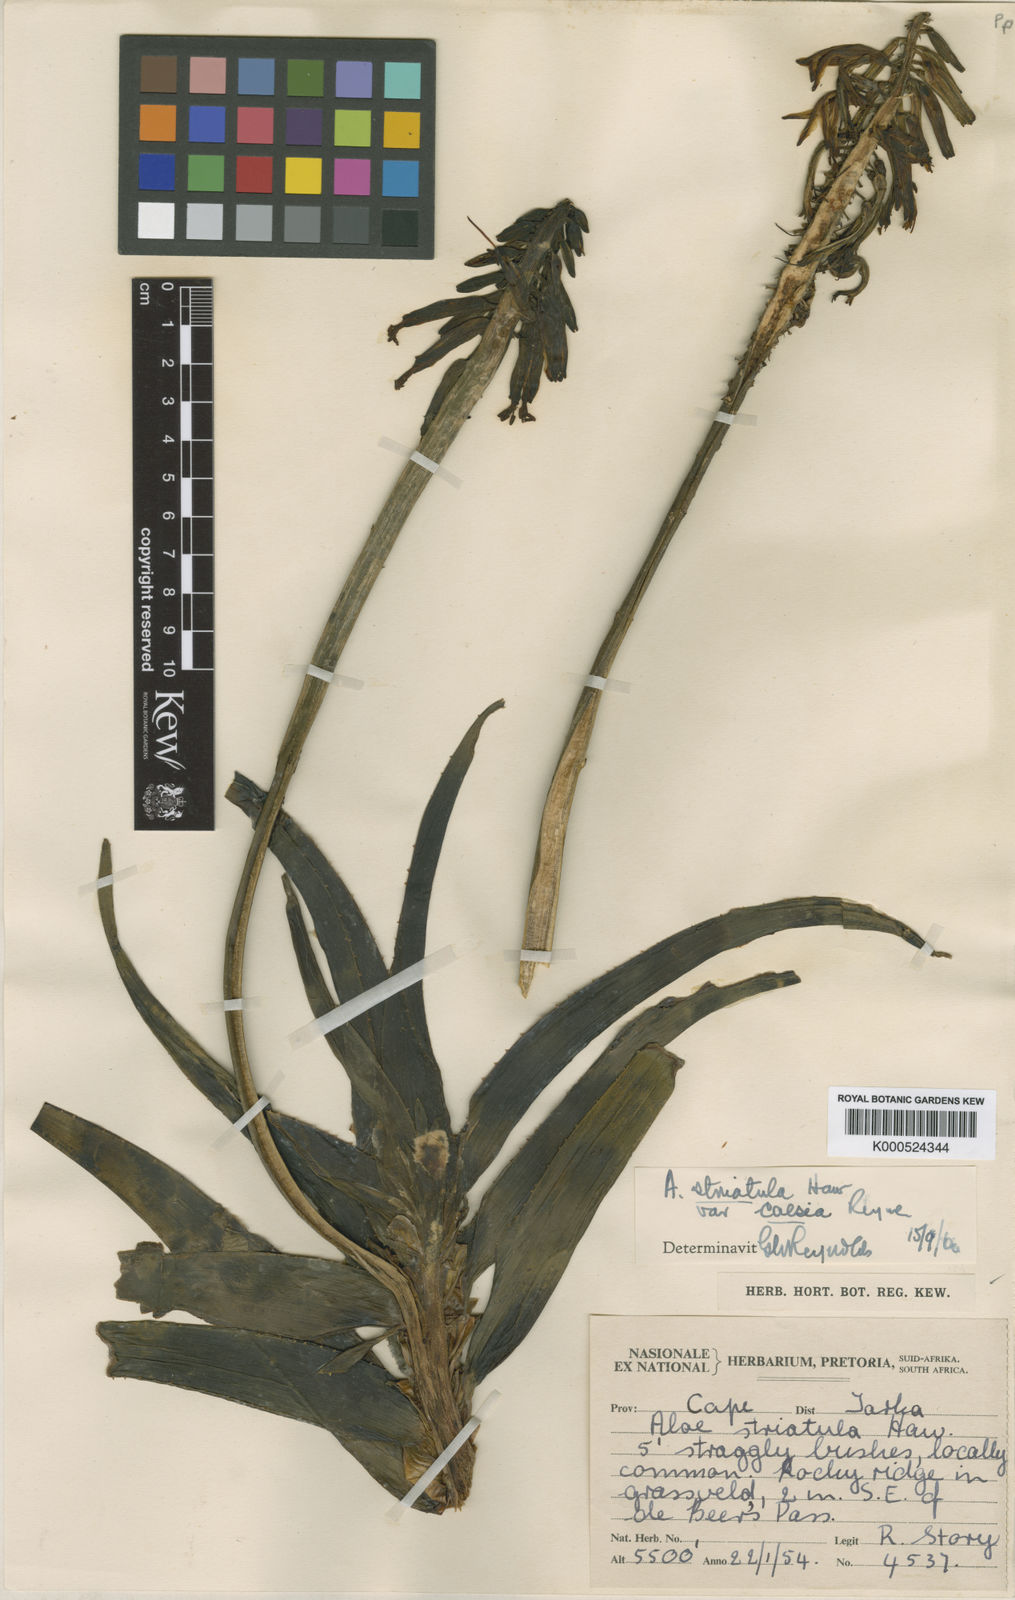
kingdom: Plantae
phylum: Tracheophyta
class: Liliopsida
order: Asparagales
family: Asphodelaceae
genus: Aloiampelos
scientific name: Aloiampelos striatula
